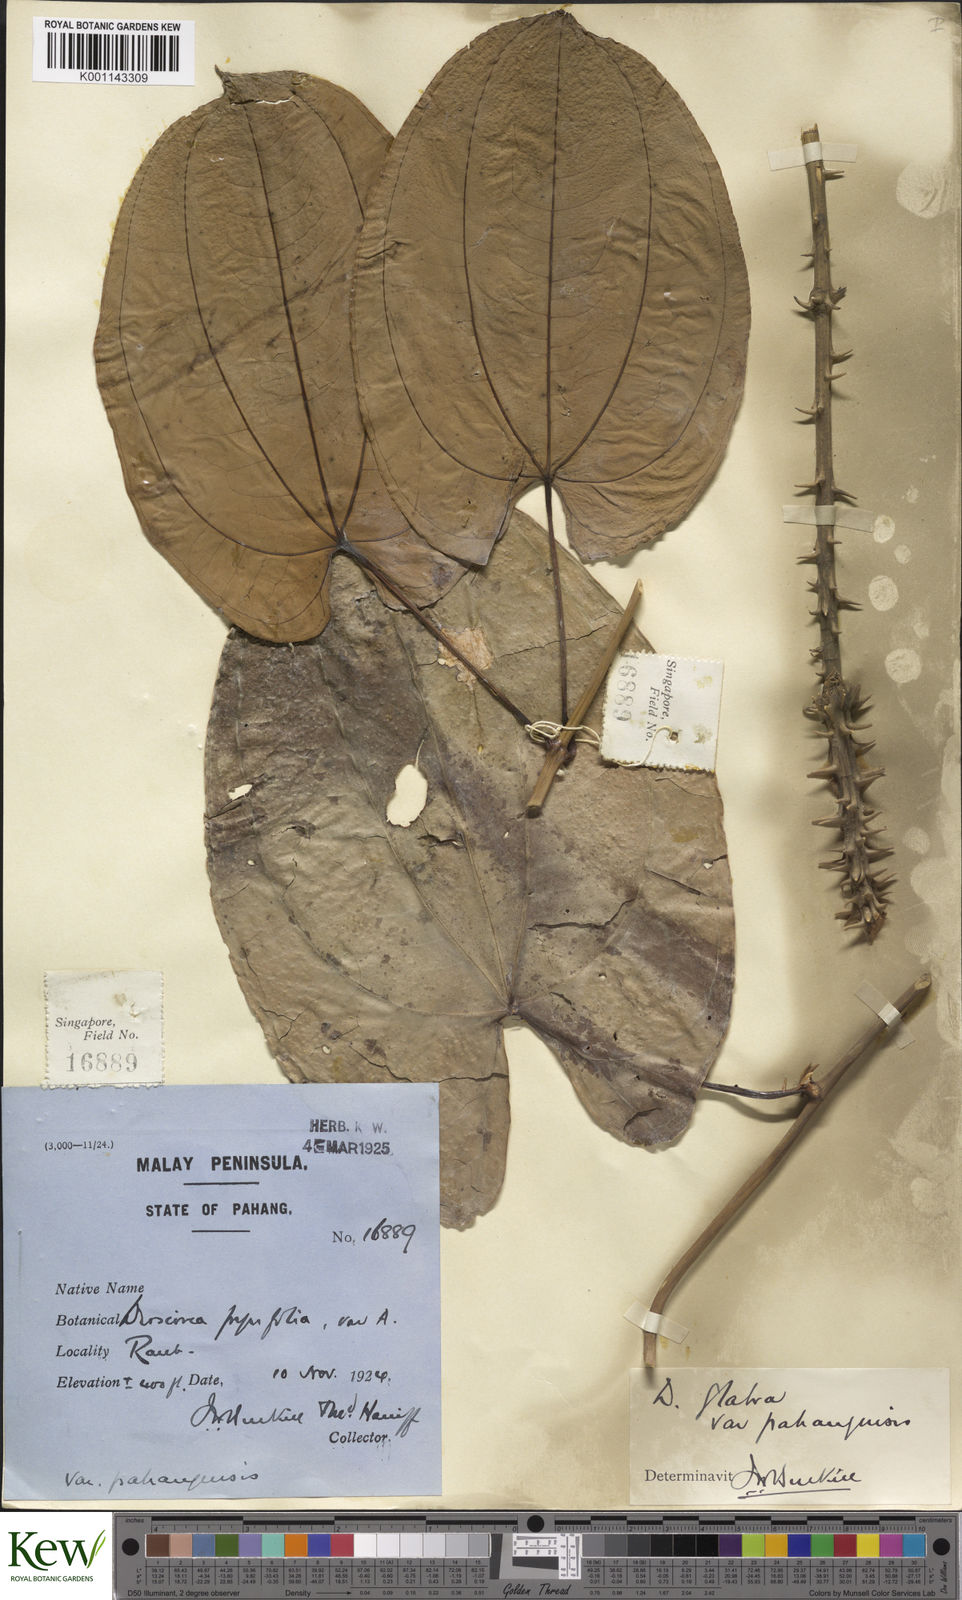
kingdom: Plantae
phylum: Tracheophyta
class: Liliopsida
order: Dioscoreales
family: Dioscoreaceae
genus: Dioscorea
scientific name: Dioscorea glabra
